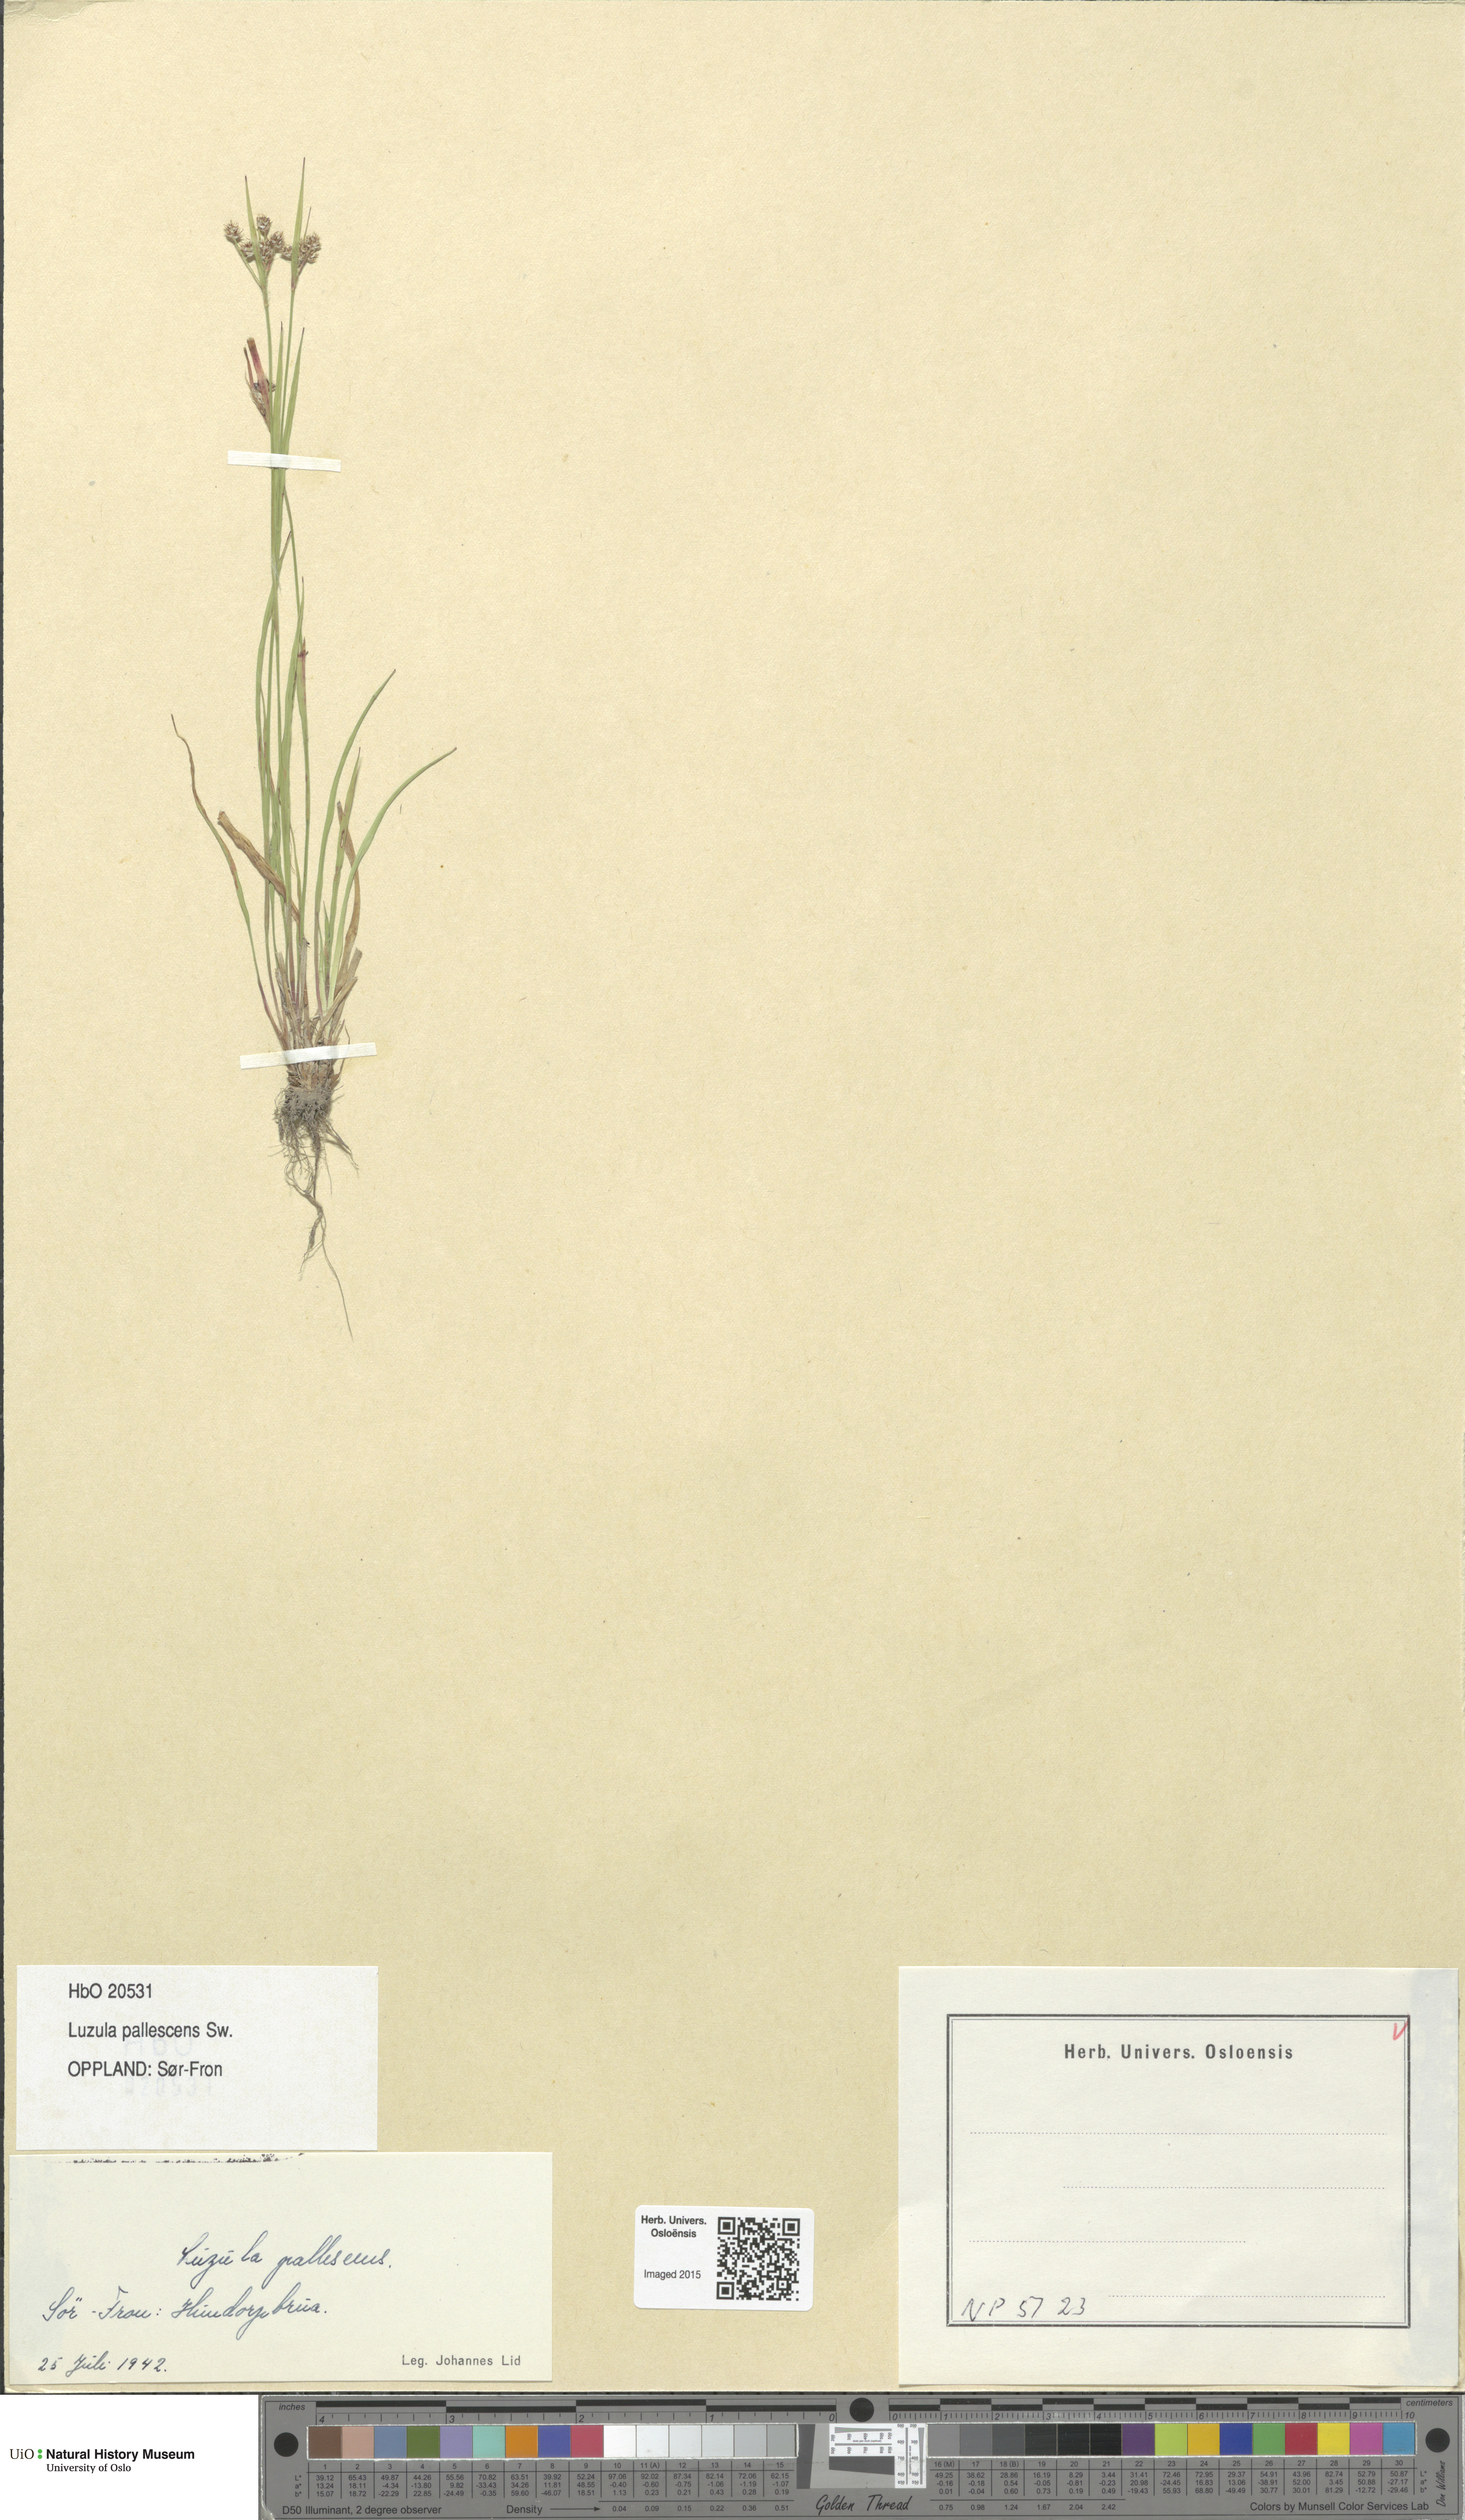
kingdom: Plantae
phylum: Tracheophyta
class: Liliopsida
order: Poales
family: Juncaceae
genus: Luzula
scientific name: Luzula pallescens
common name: Fen wood-rush
